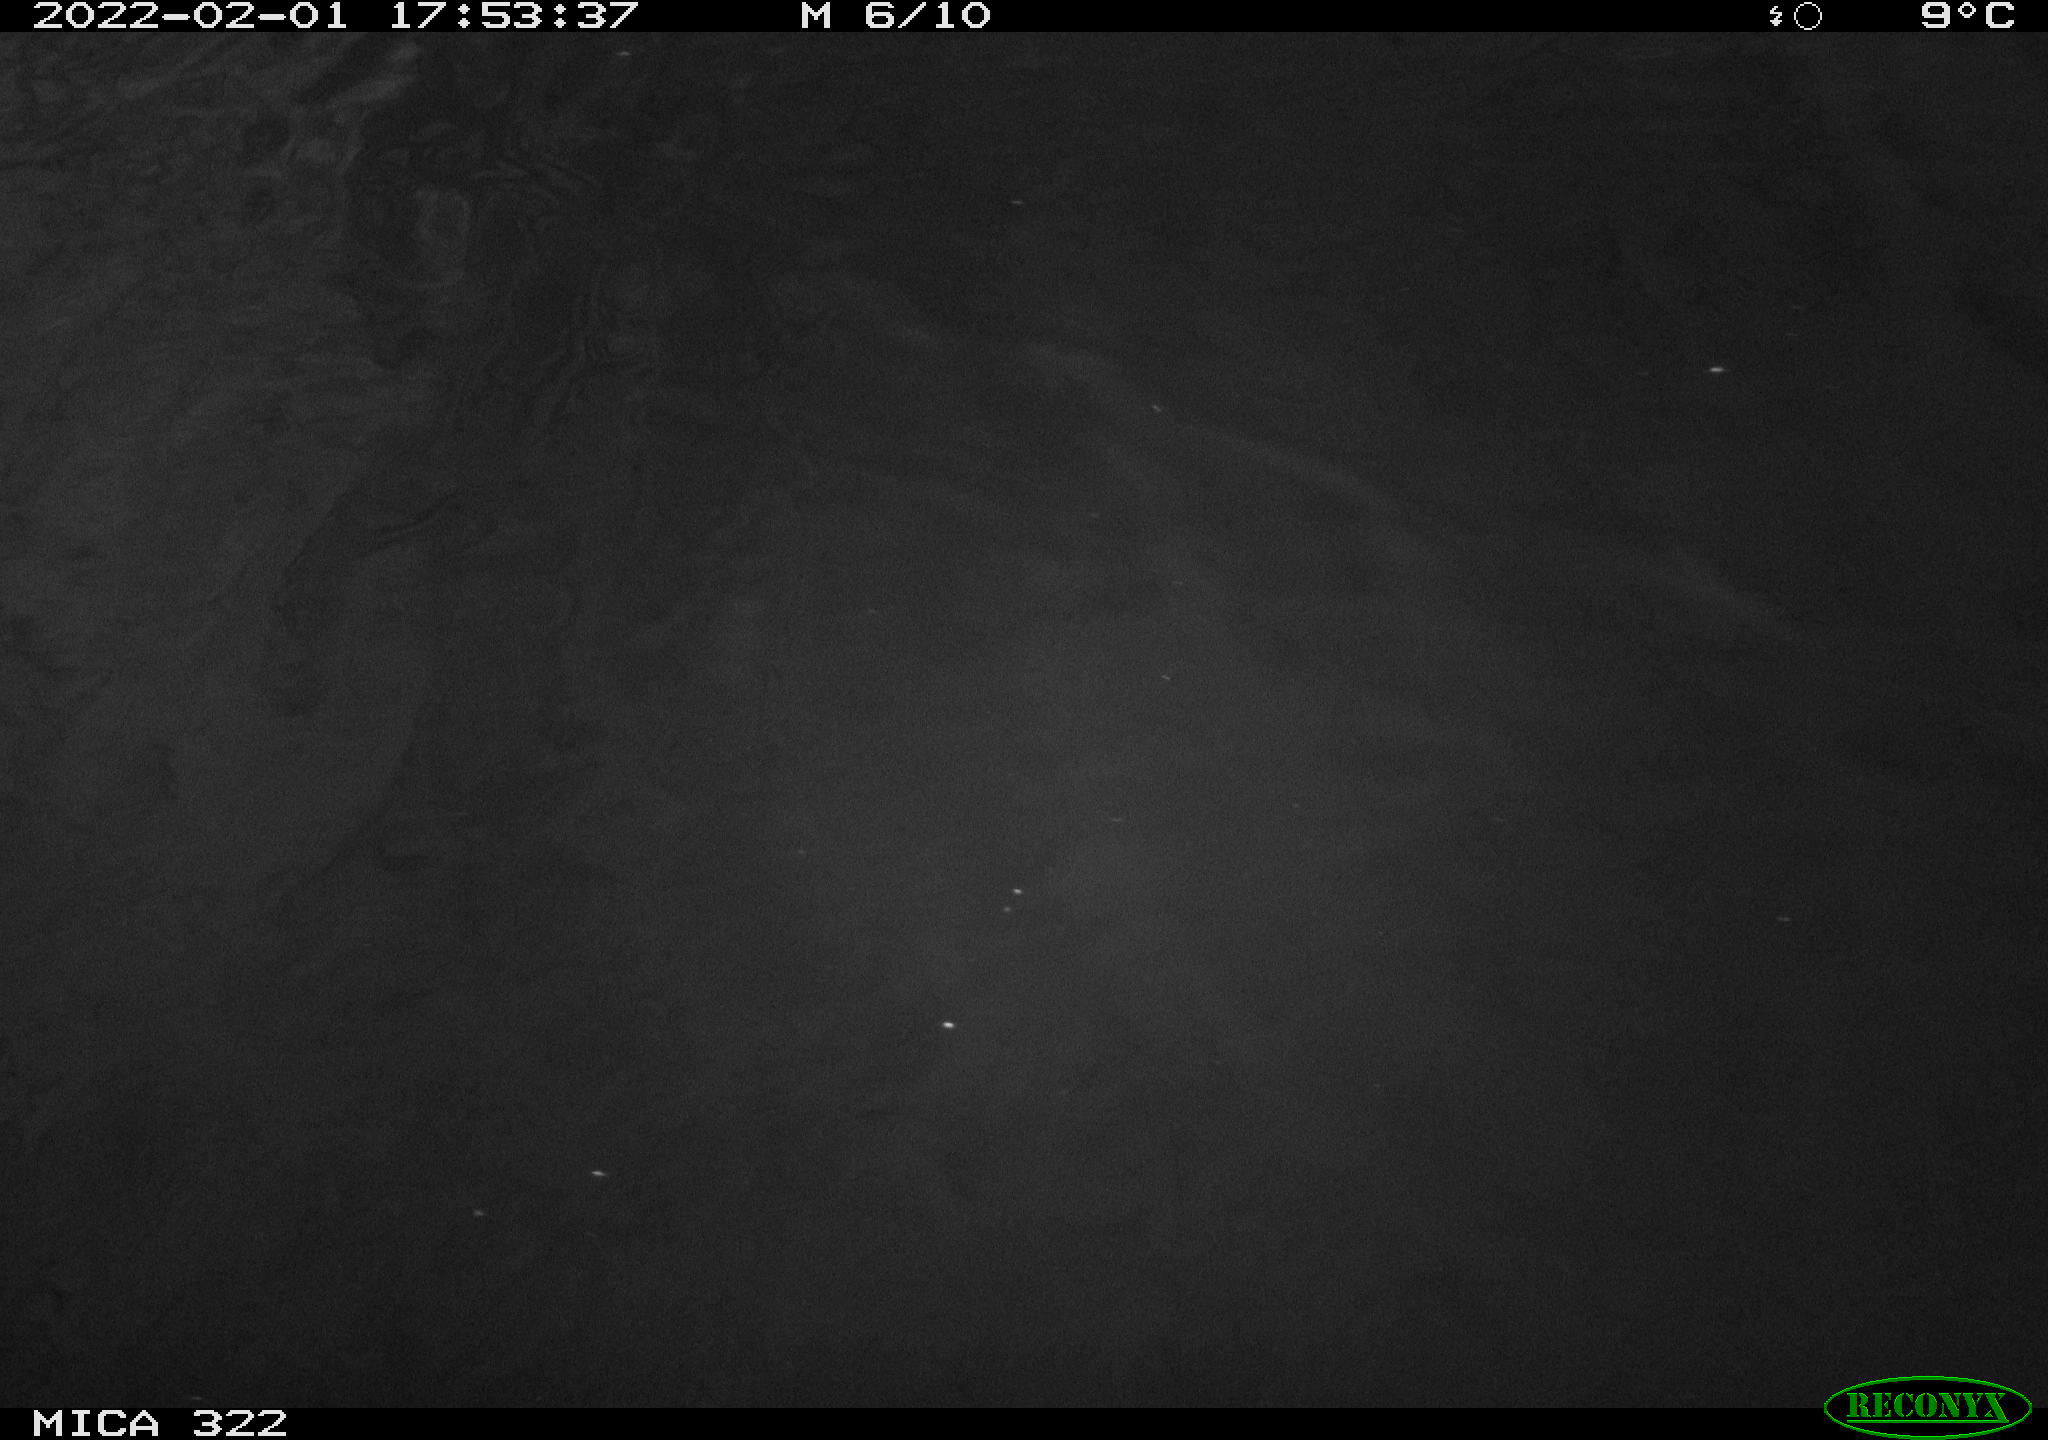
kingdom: Animalia
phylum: Chordata
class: Aves
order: Anseriformes
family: Anatidae
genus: Anas
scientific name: Anas
